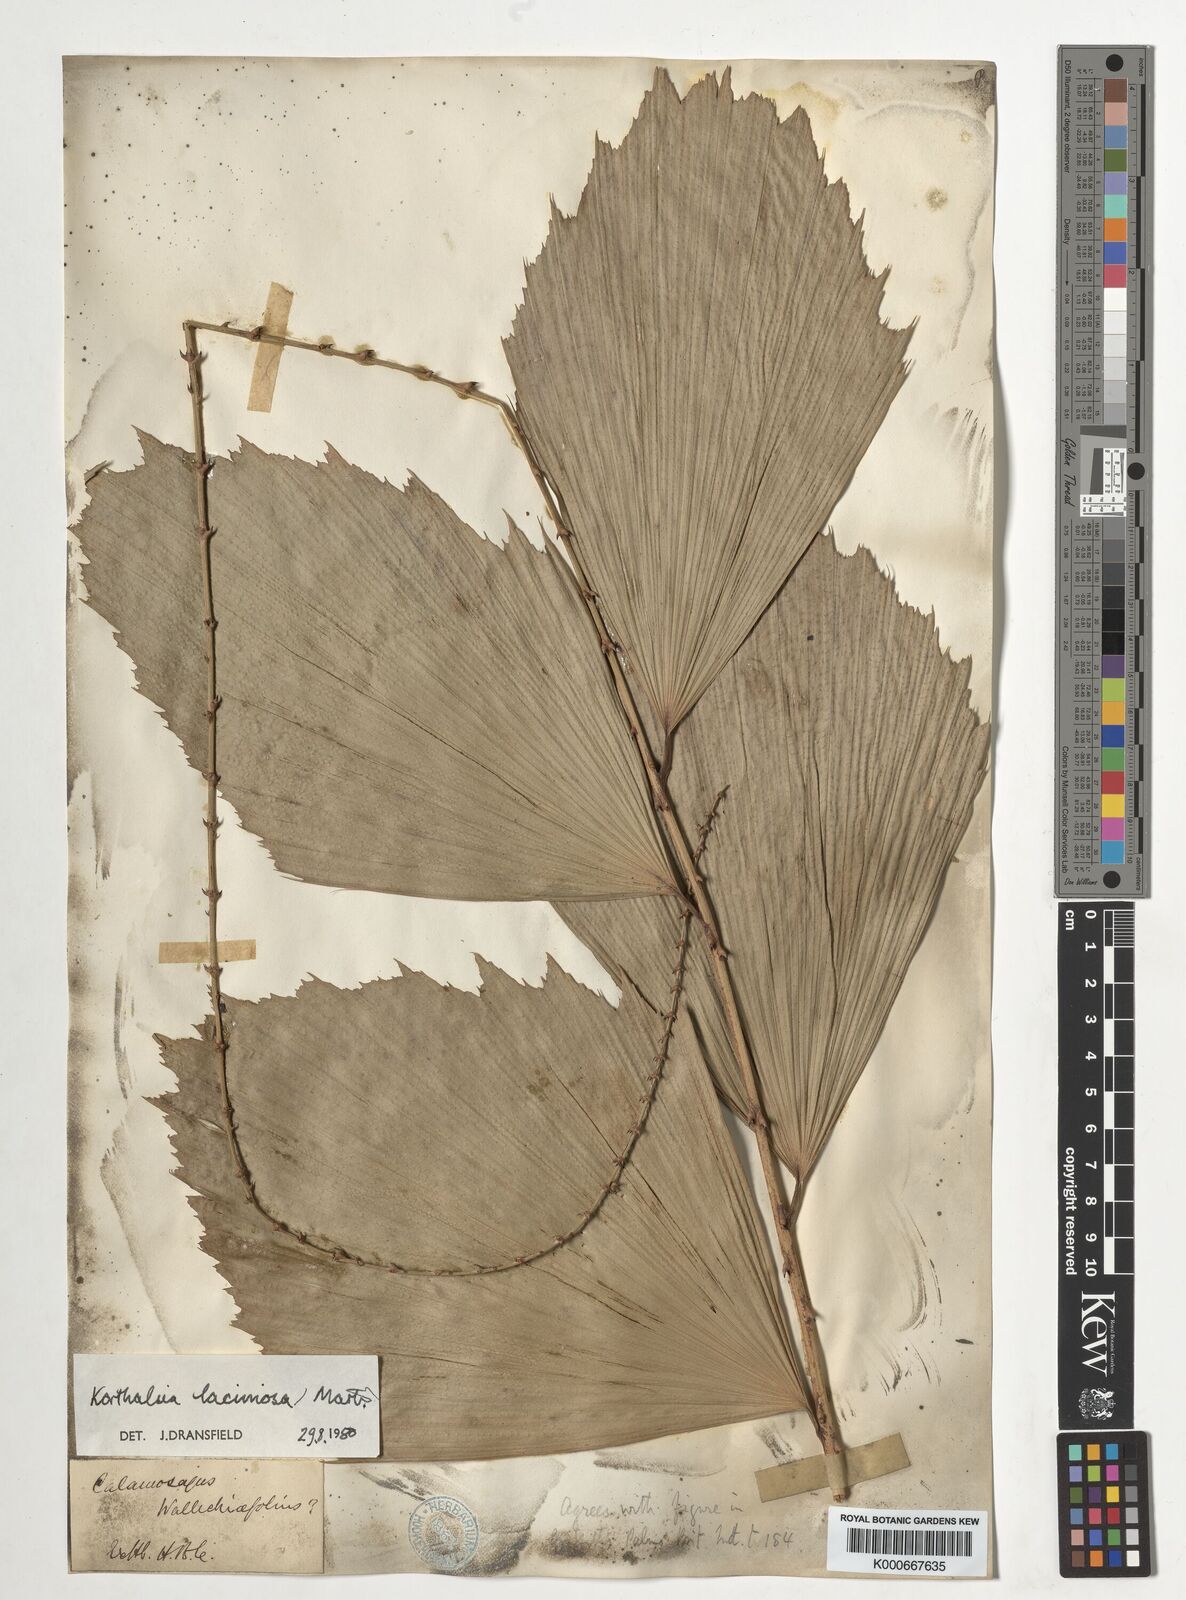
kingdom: Plantae
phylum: Tracheophyta
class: Liliopsida
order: Arecales
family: Arecaceae
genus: Korthalsia
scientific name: Korthalsia laciniosa
